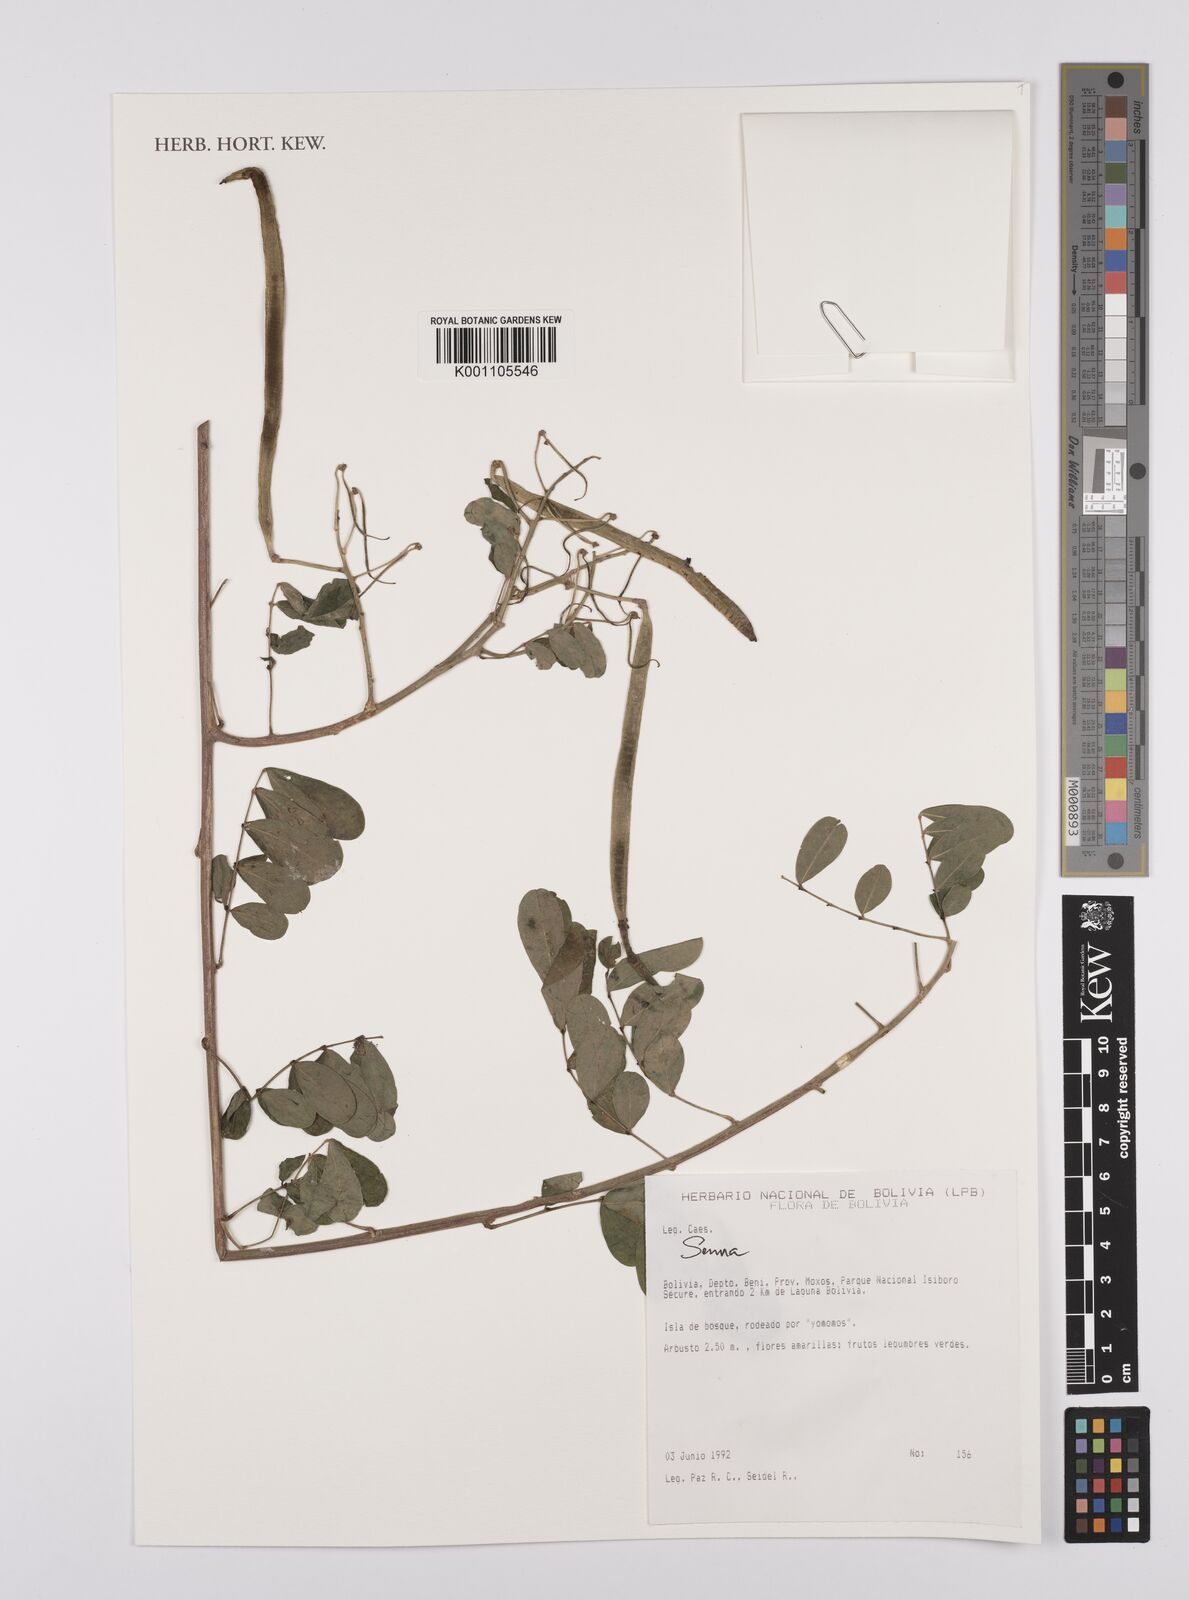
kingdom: Plantae
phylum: Tracheophyta
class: Magnoliopsida
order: Fabales
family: Fabaceae
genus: Senna
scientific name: Senna
